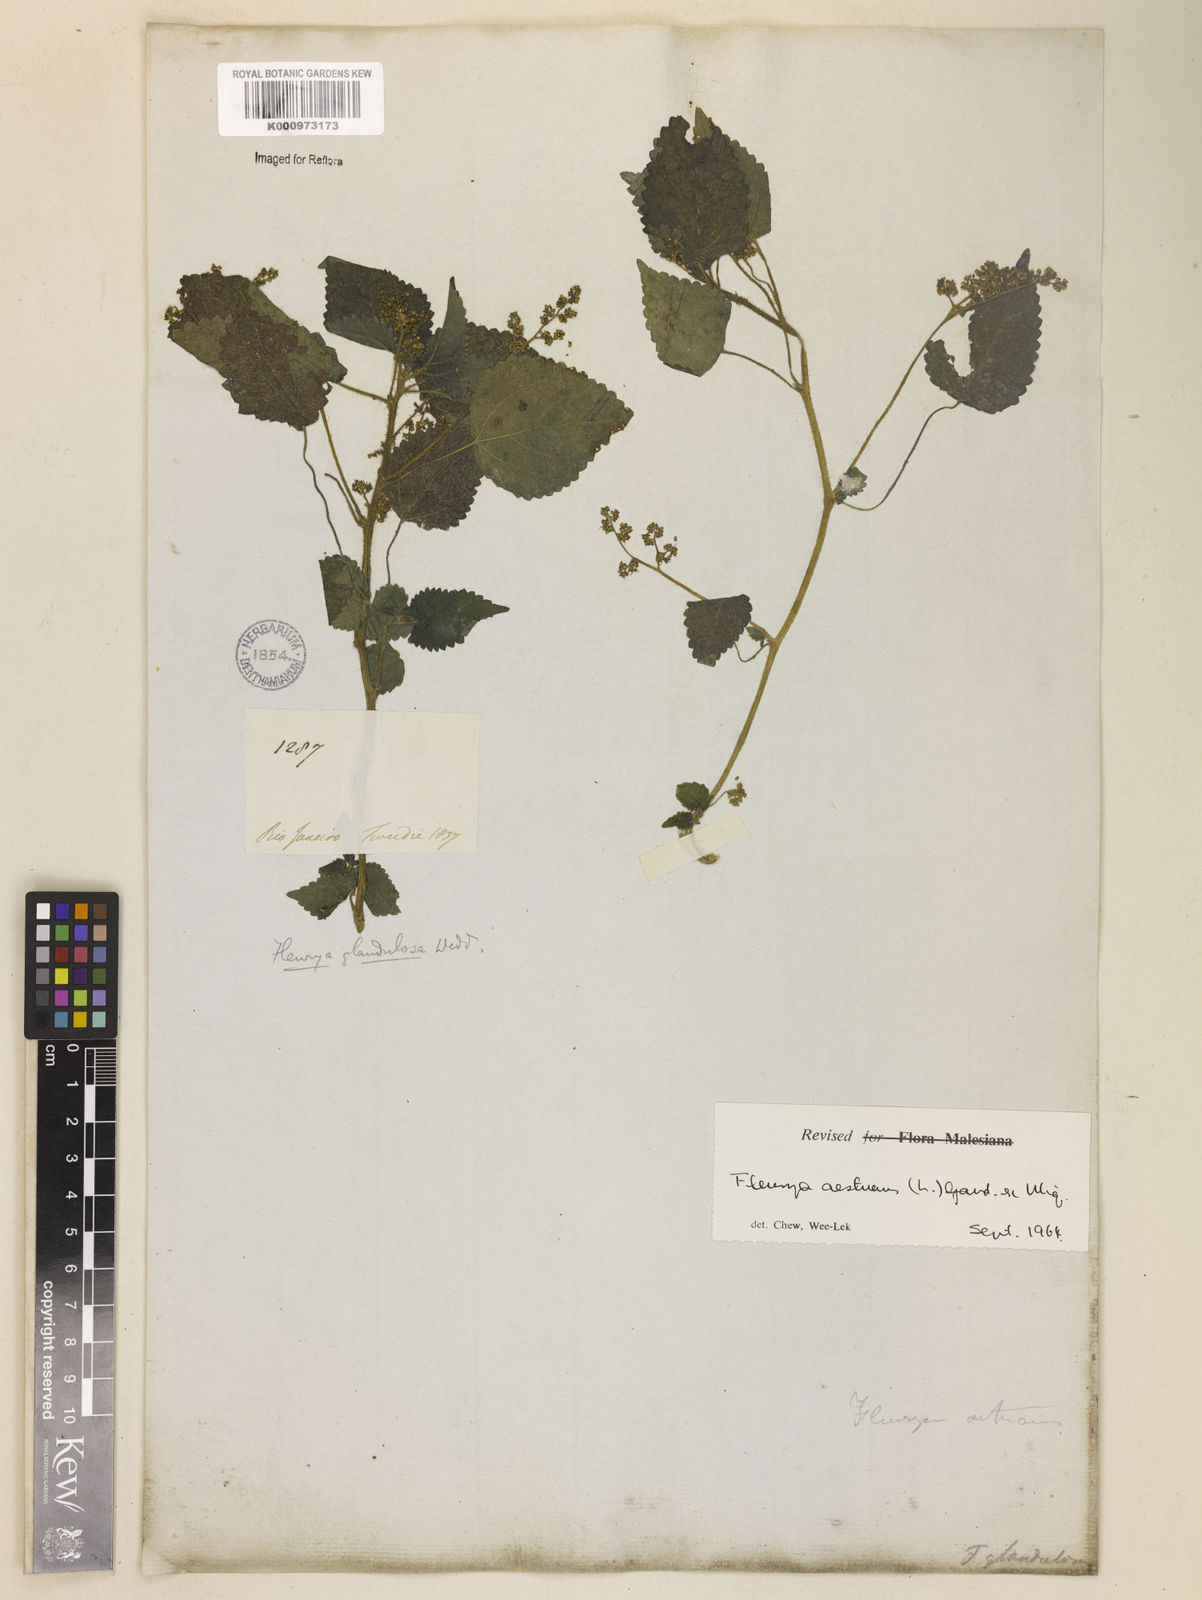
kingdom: Plantae
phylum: Tracheophyta
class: Magnoliopsida
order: Rosales
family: Urticaceae
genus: Laportea
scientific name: Laportea aestuans
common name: West indian woodnettle
